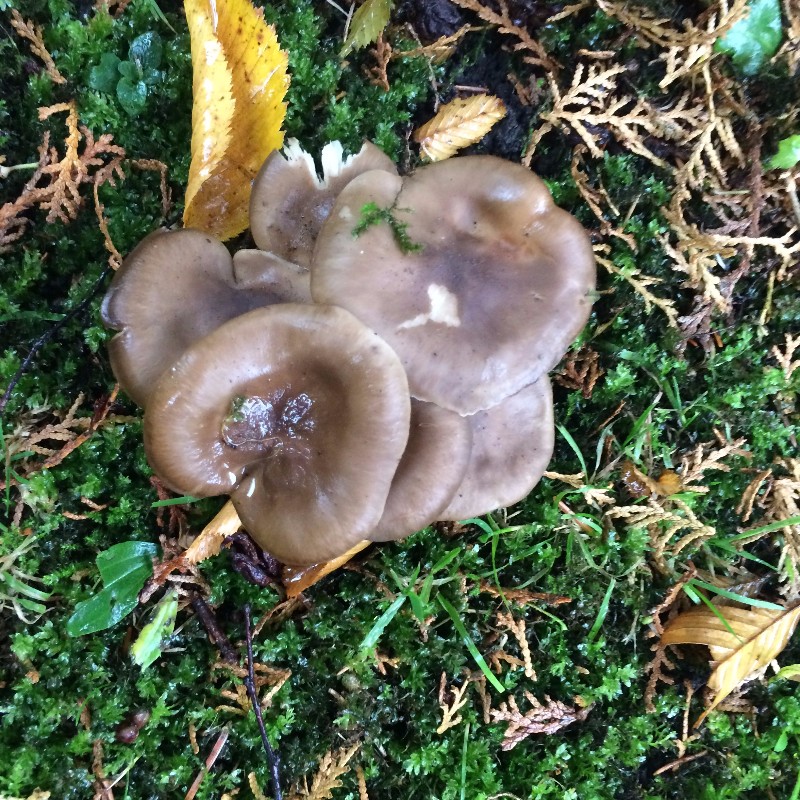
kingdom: Fungi
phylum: Basidiomycota
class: Agaricomycetes
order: Agaricales
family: Lyophyllaceae
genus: Lyophyllum
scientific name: Lyophyllum decastes
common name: røggrå gråblad
